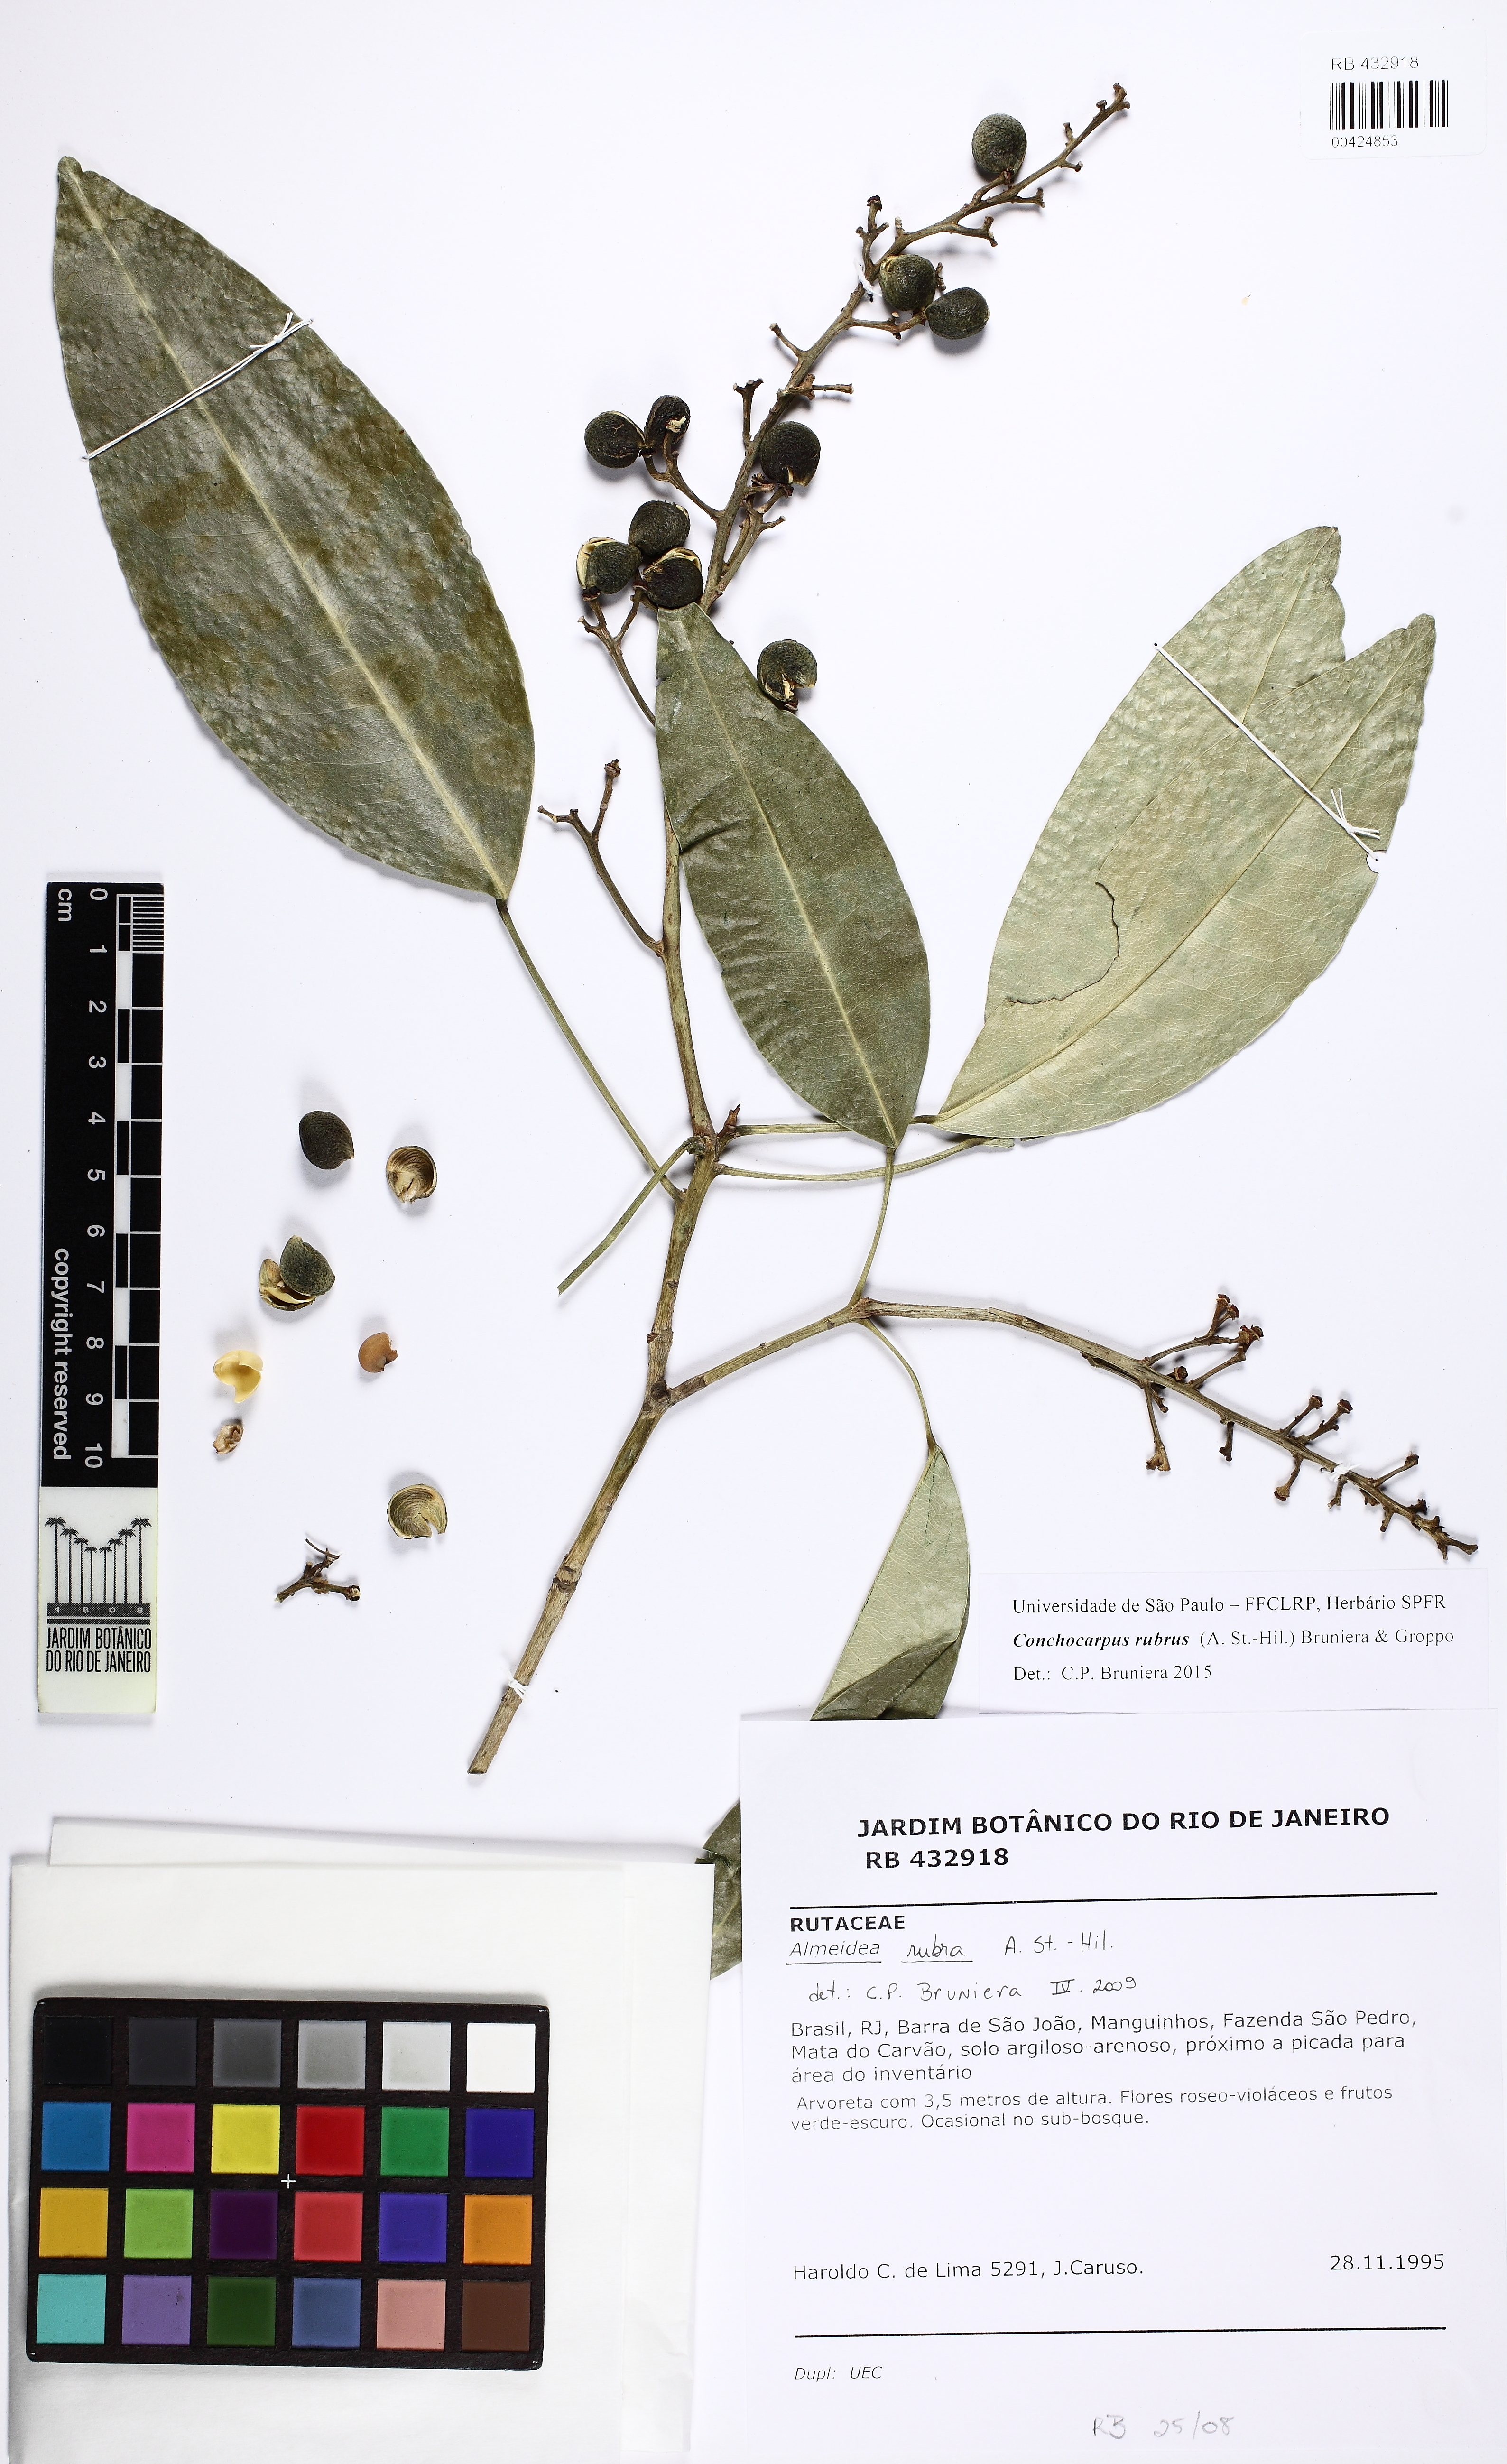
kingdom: Plantae
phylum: Tracheophyta
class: Magnoliopsida
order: Sapindales
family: Rutaceae
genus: Conchocarpus
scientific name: Conchocarpus ruber
